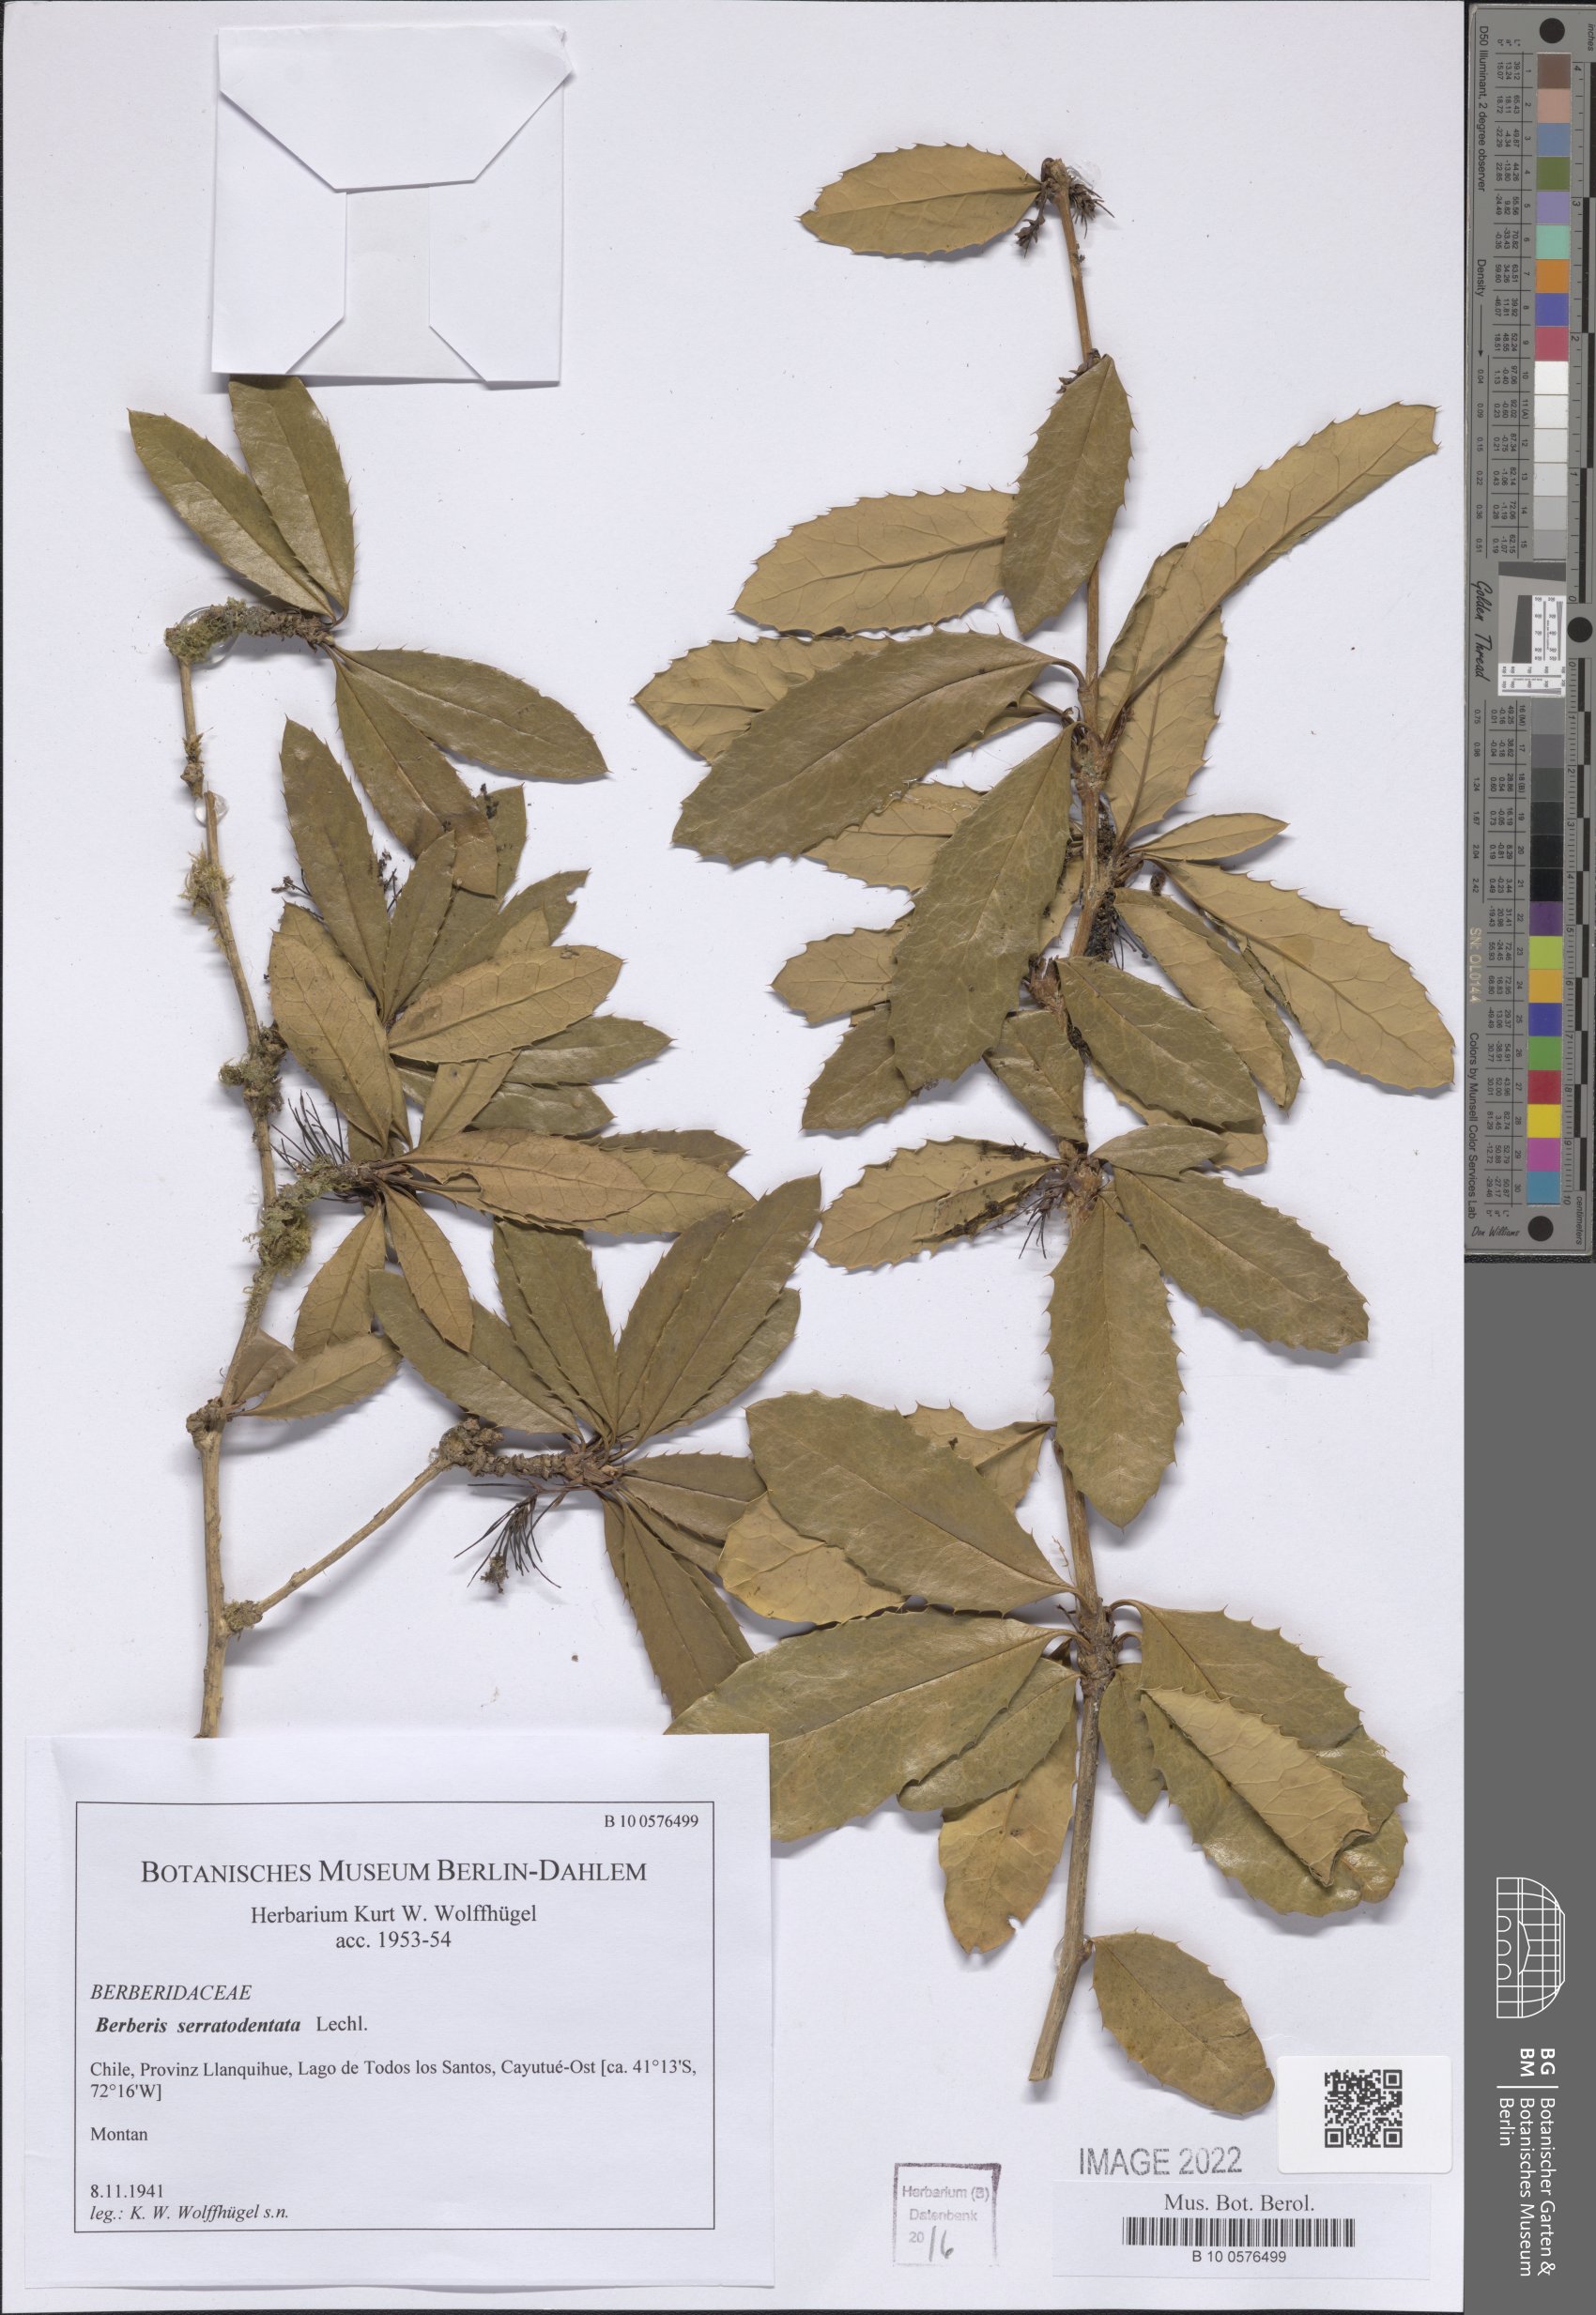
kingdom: Plantae
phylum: Tracheophyta
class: Magnoliopsida
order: Ranunculales
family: Berberidaceae
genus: Berberis
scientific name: Berberis serratodentata
